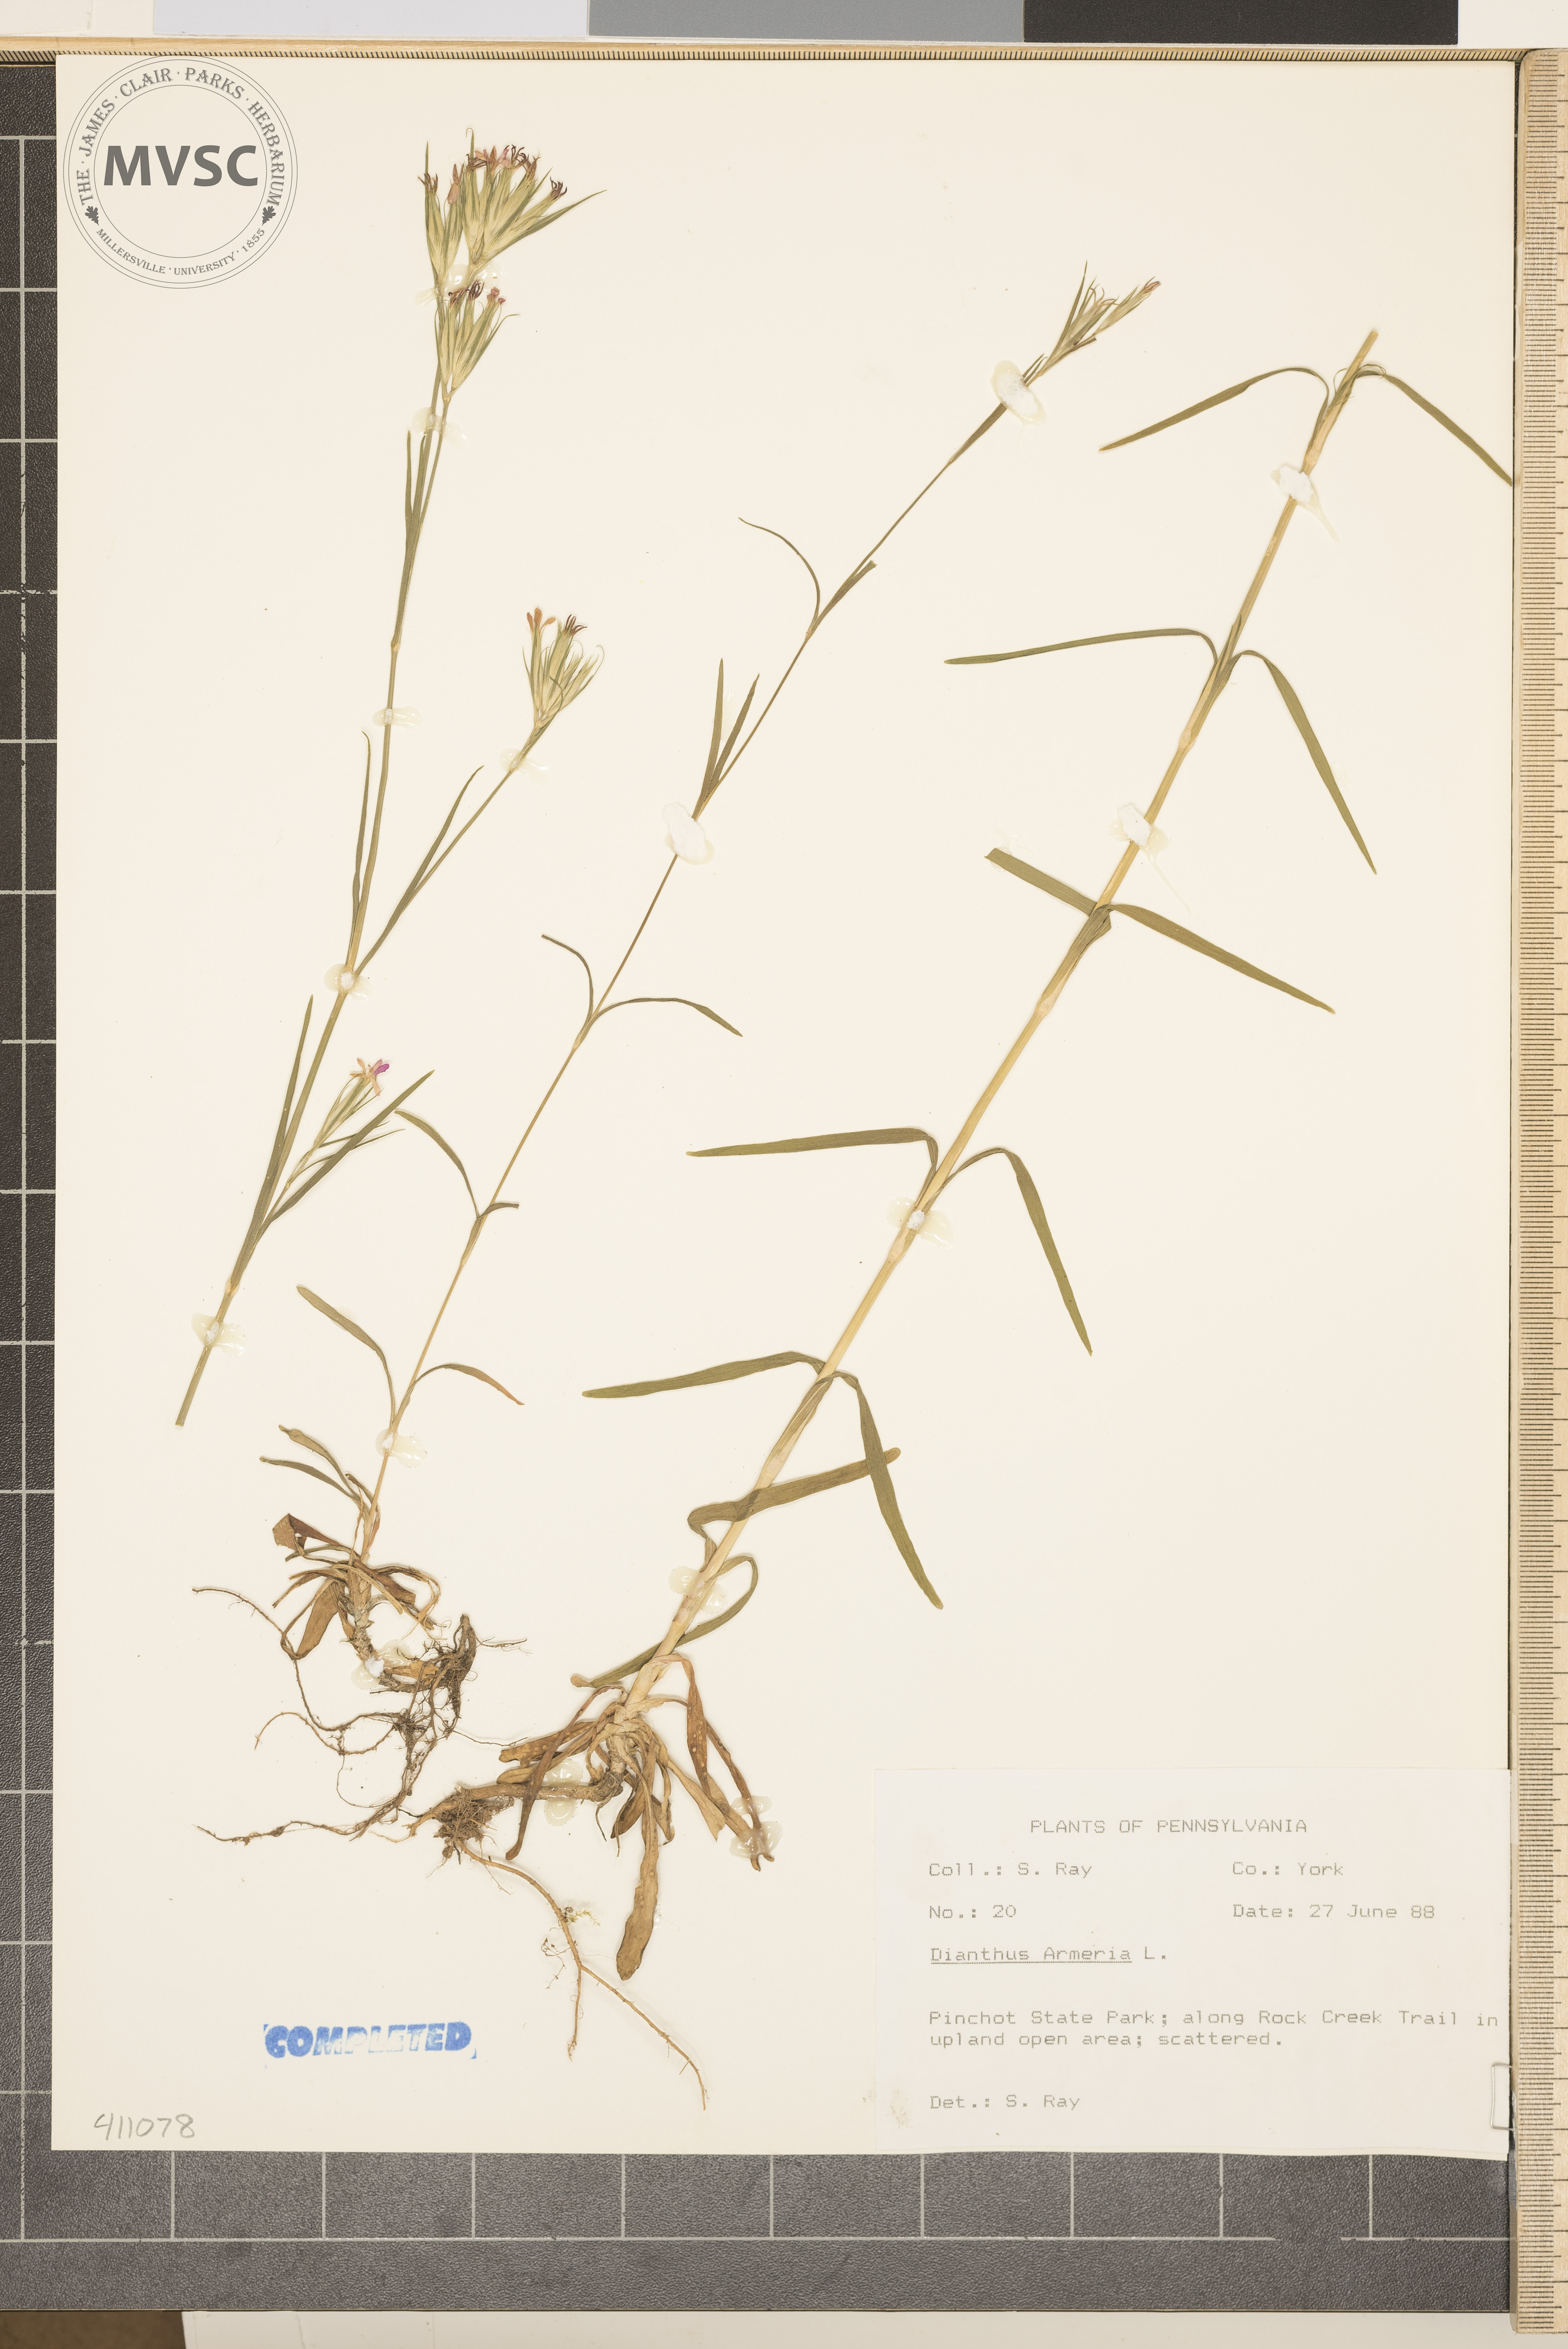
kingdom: Plantae
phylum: Tracheophyta
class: Magnoliopsida
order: Caryophyllales
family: Caryophyllaceae
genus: Dianthus
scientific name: Dianthus armeria
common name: Deptford pink
